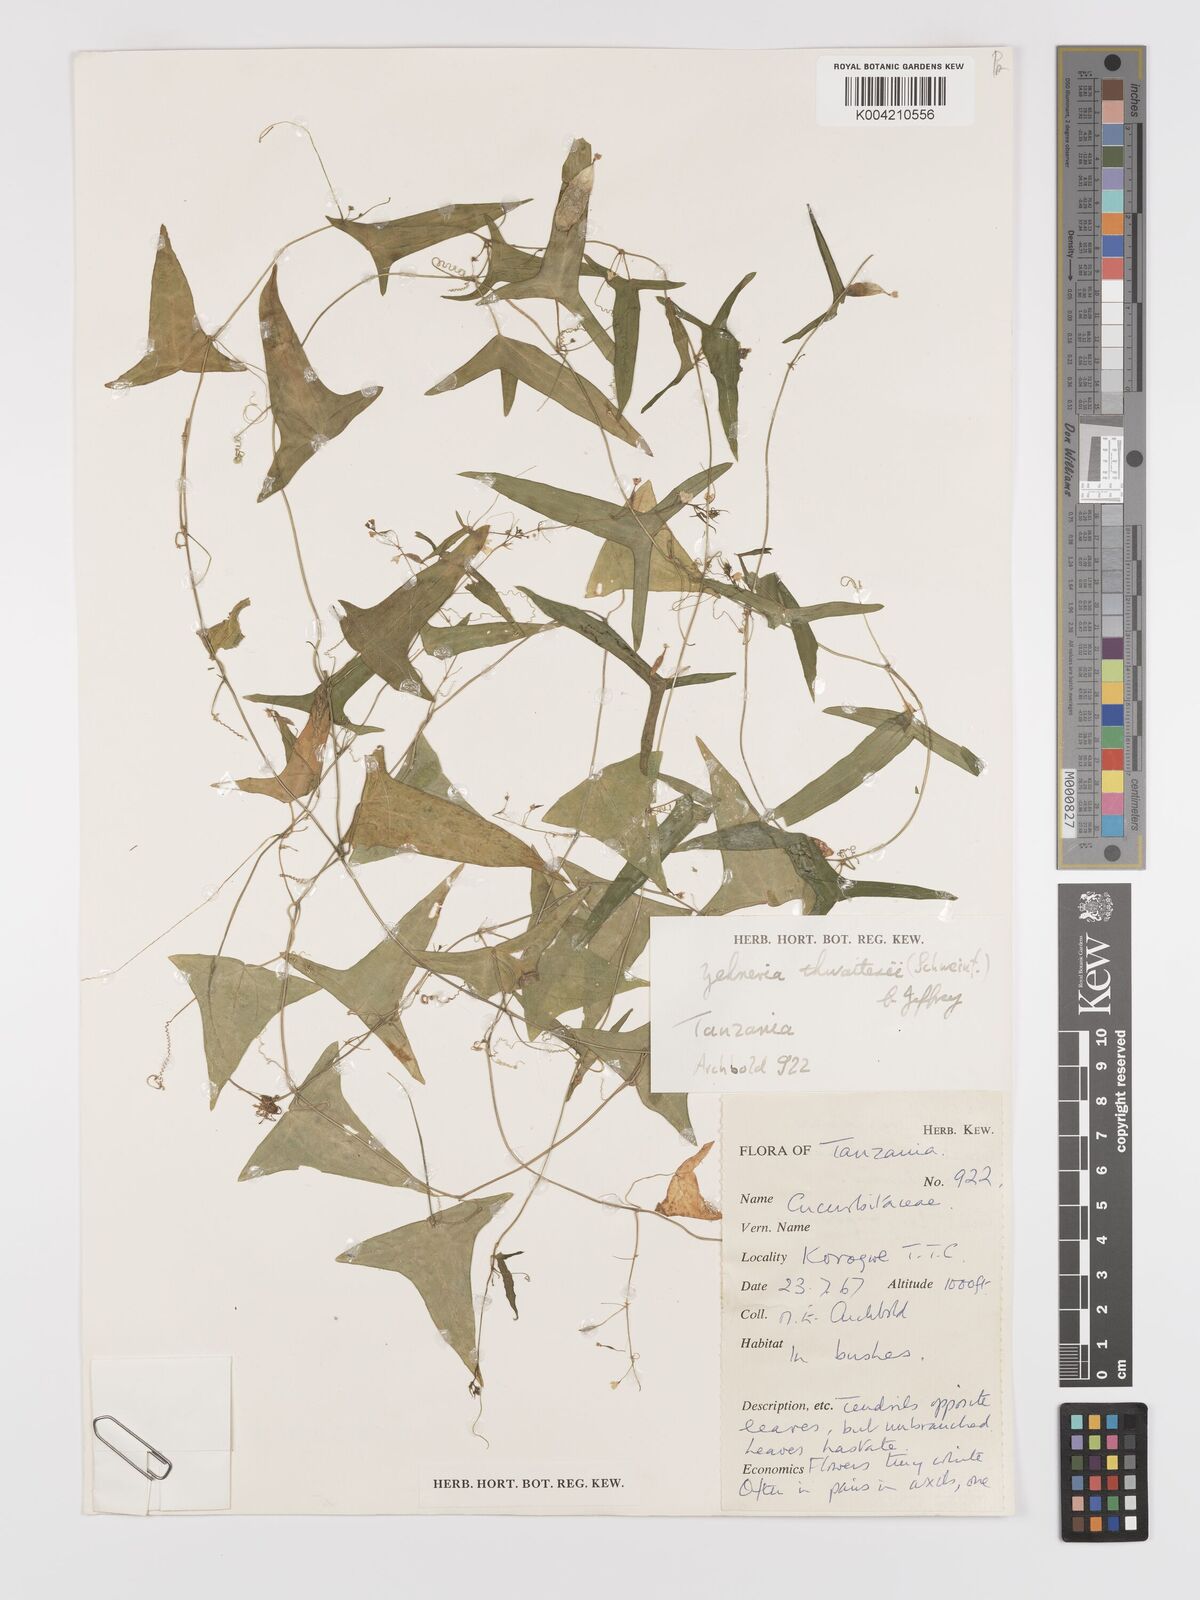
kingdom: Plantae
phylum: Tracheophyta
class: Magnoliopsida
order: Cucurbitales
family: Cucurbitaceae
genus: Zehneria
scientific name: Zehneria thwaitesii
